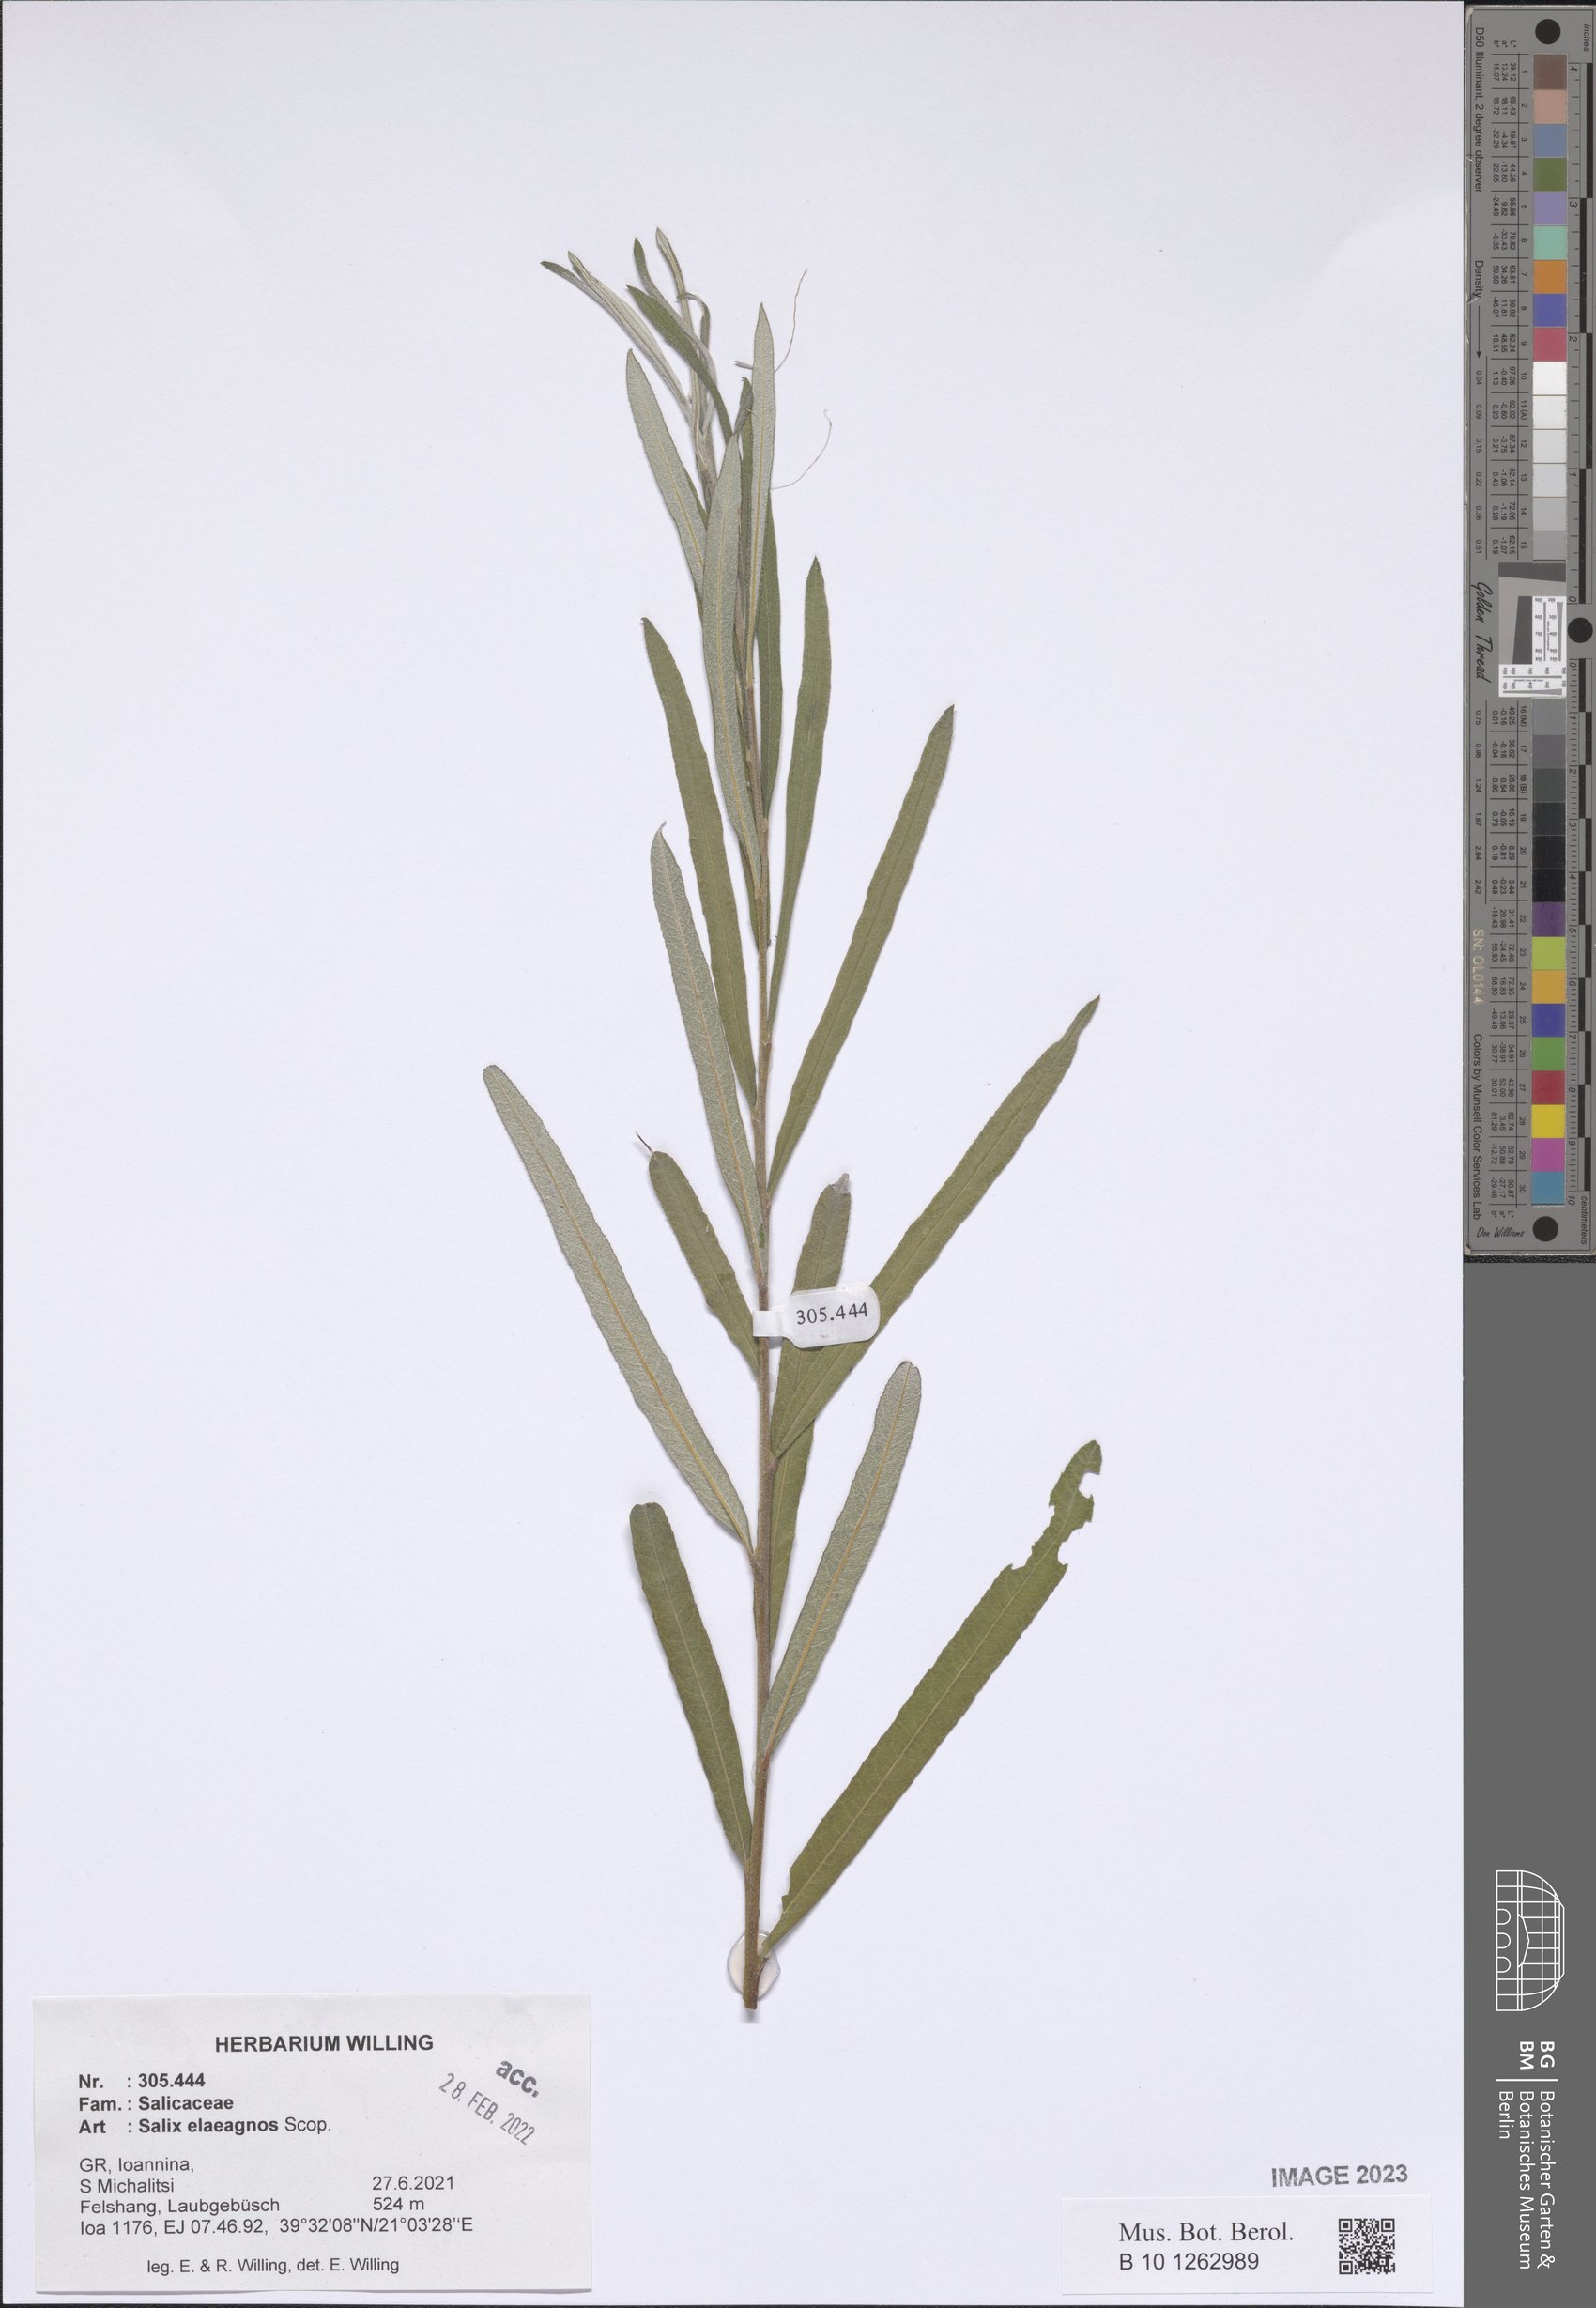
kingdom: Plantae
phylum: Tracheophyta
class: Magnoliopsida
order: Malpighiales
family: Salicaceae
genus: Salix
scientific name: Salix eleagnos
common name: Elaeagnus willow
